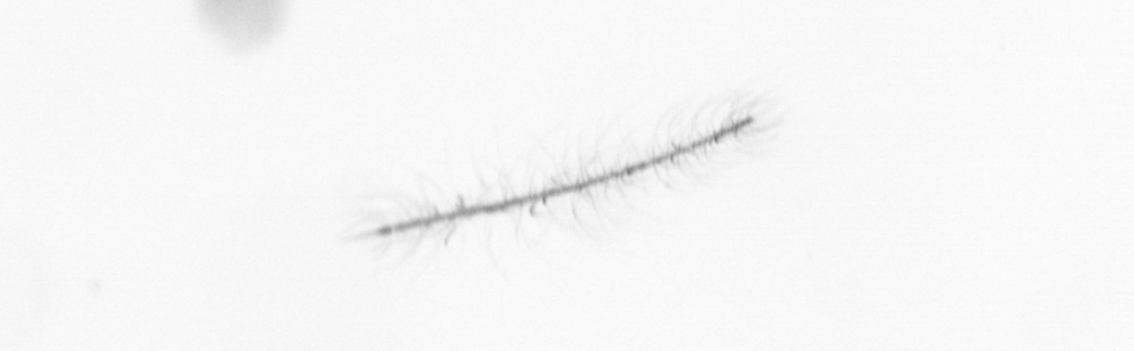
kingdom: Chromista
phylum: Ochrophyta
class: Bacillariophyceae
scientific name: Bacillariophyceae
